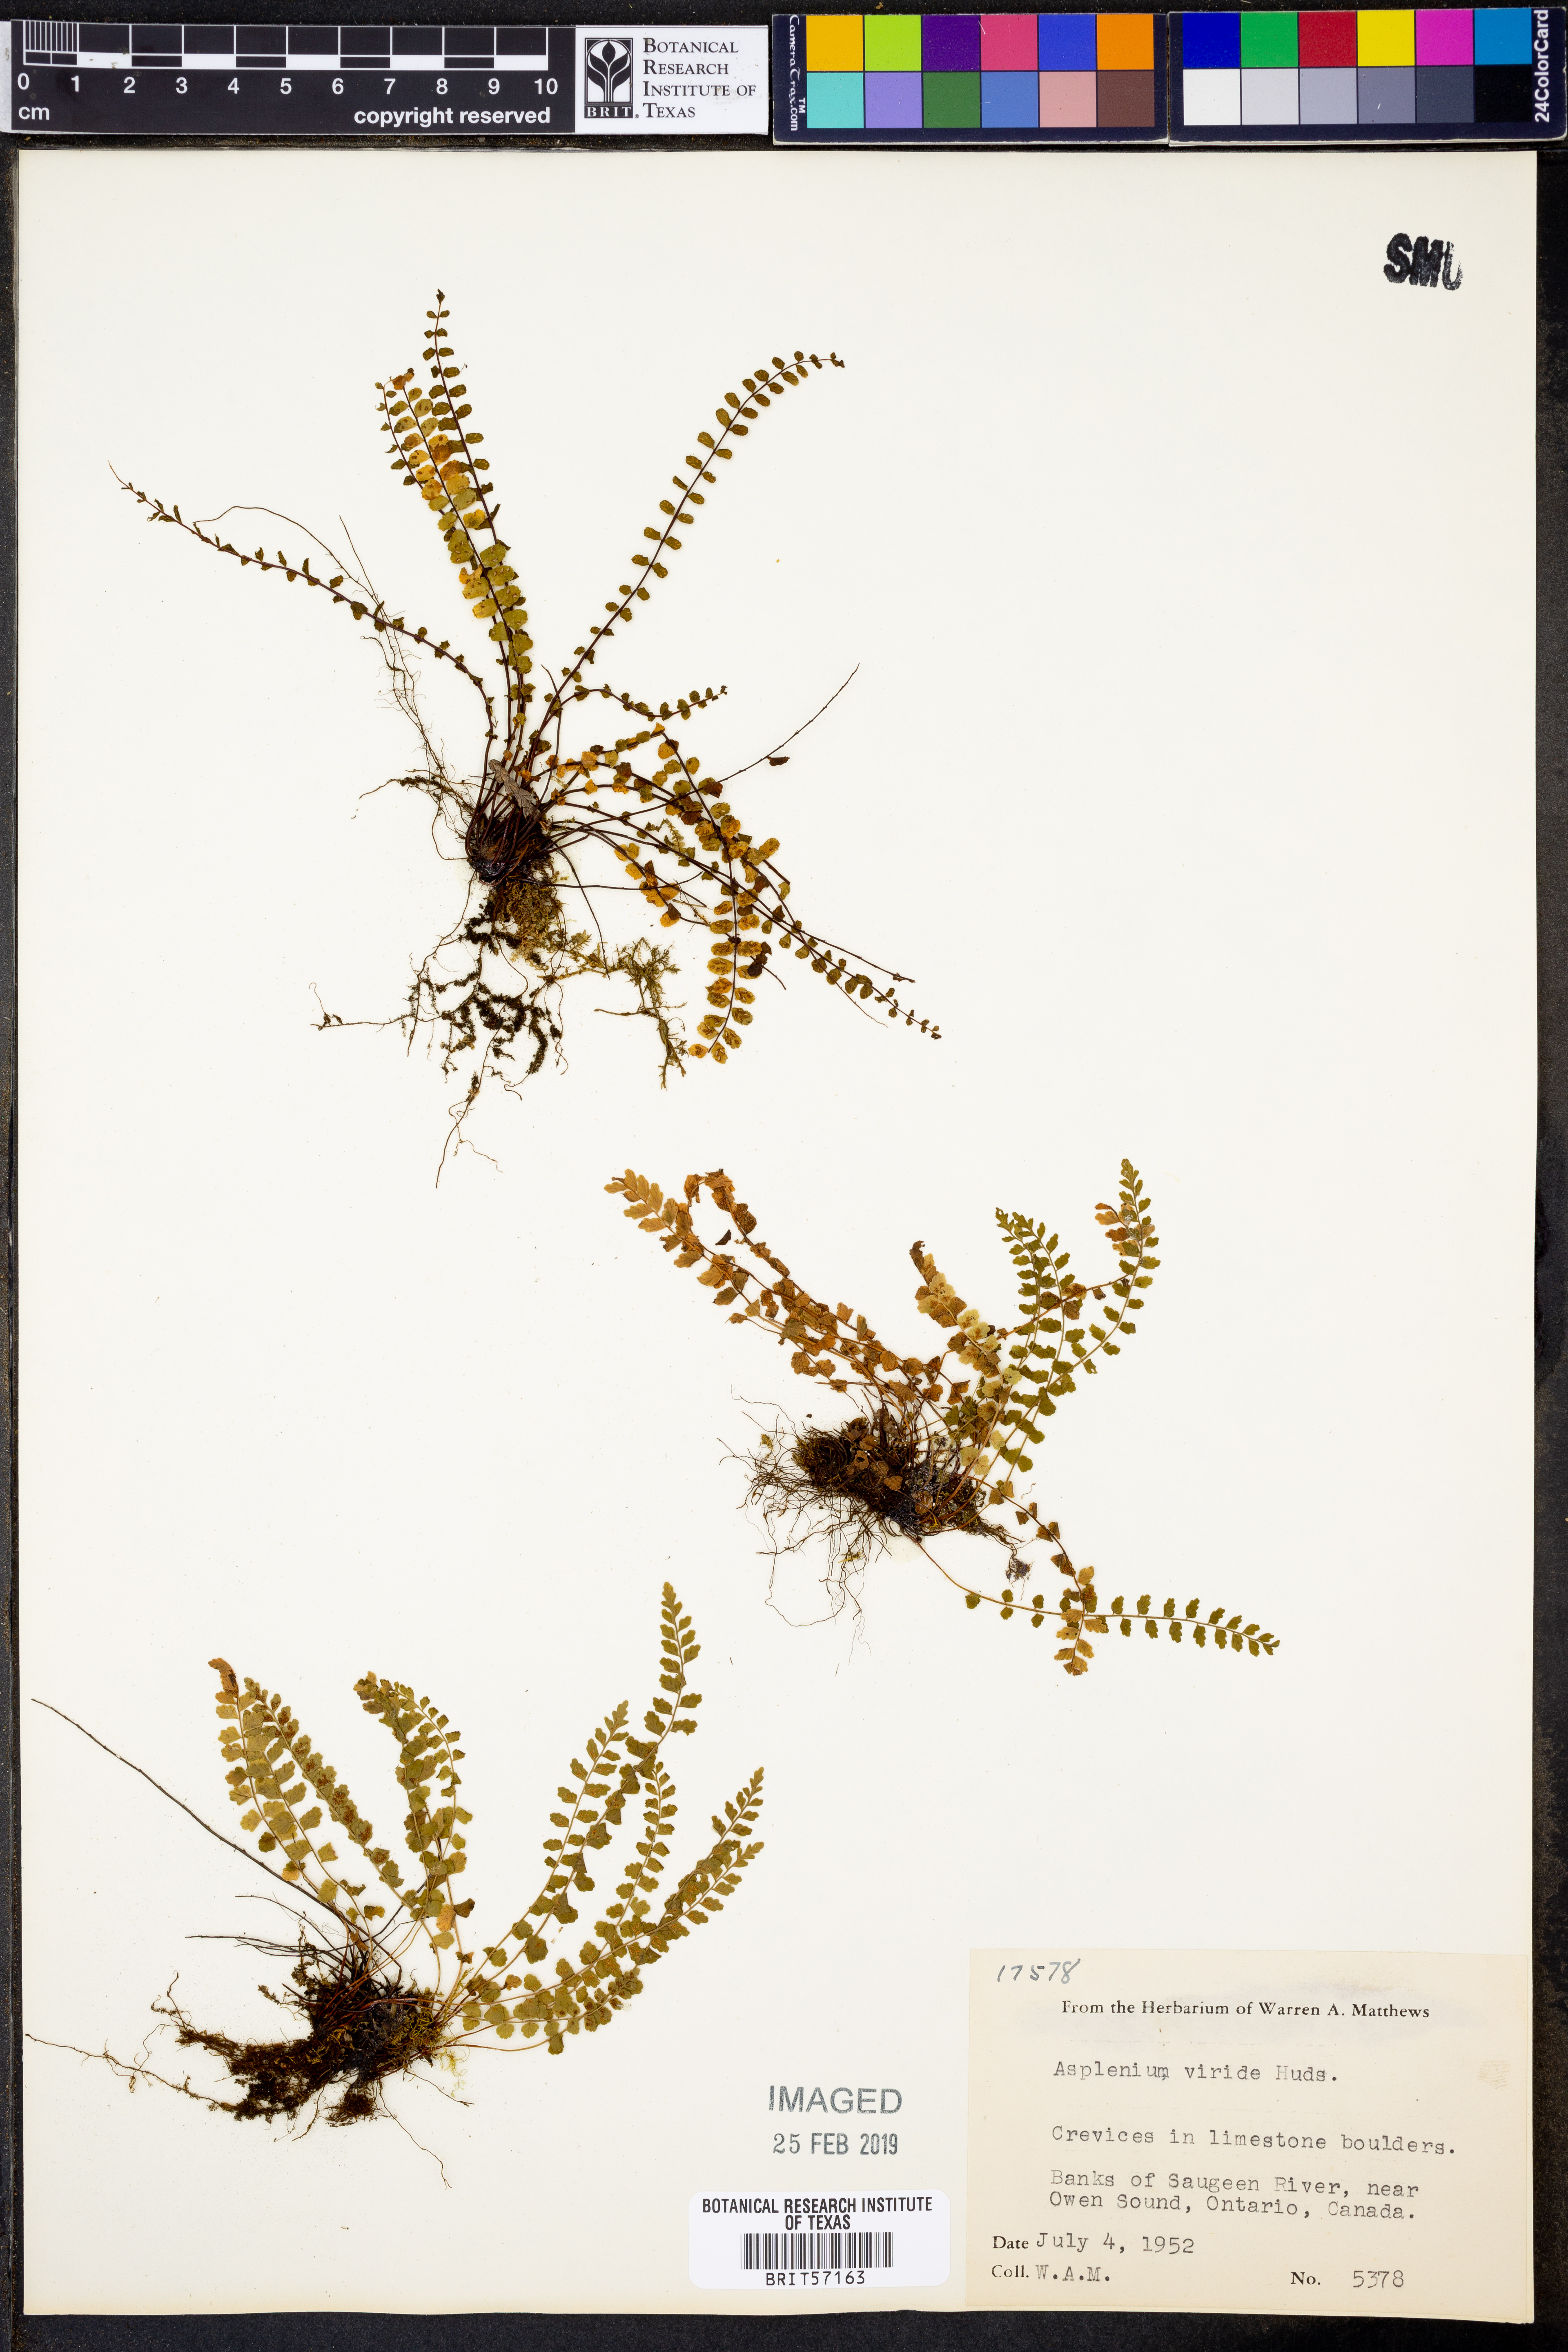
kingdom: Plantae
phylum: Tracheophyta
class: Polypodiopsida
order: Polypodiales
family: Aspleniaceae
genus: Asplenium
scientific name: Asplenium viride
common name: Green spleenwort
